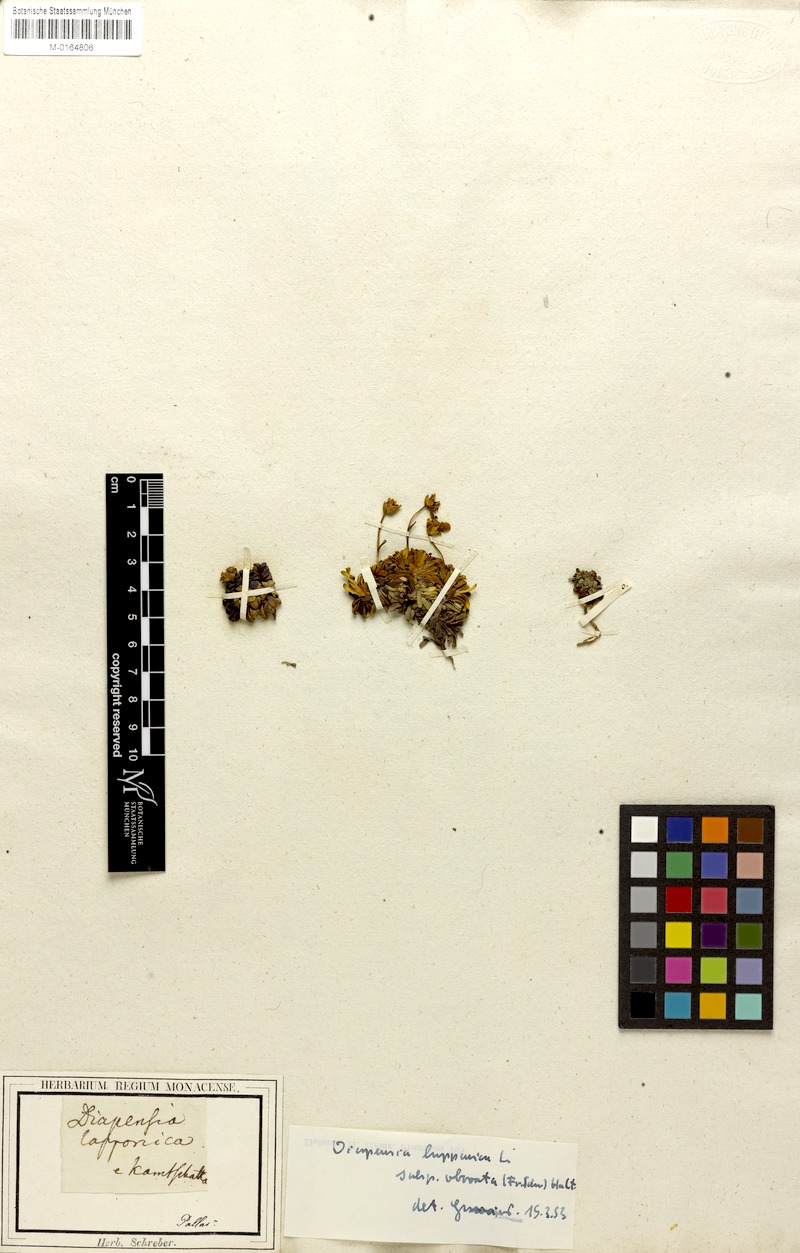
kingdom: Plantae
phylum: Tracheophyta
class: Magnoliopsida
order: Ericales
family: Diapensiaceae
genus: Diapensia
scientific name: Diapensia obovata
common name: Alaska diapensia
